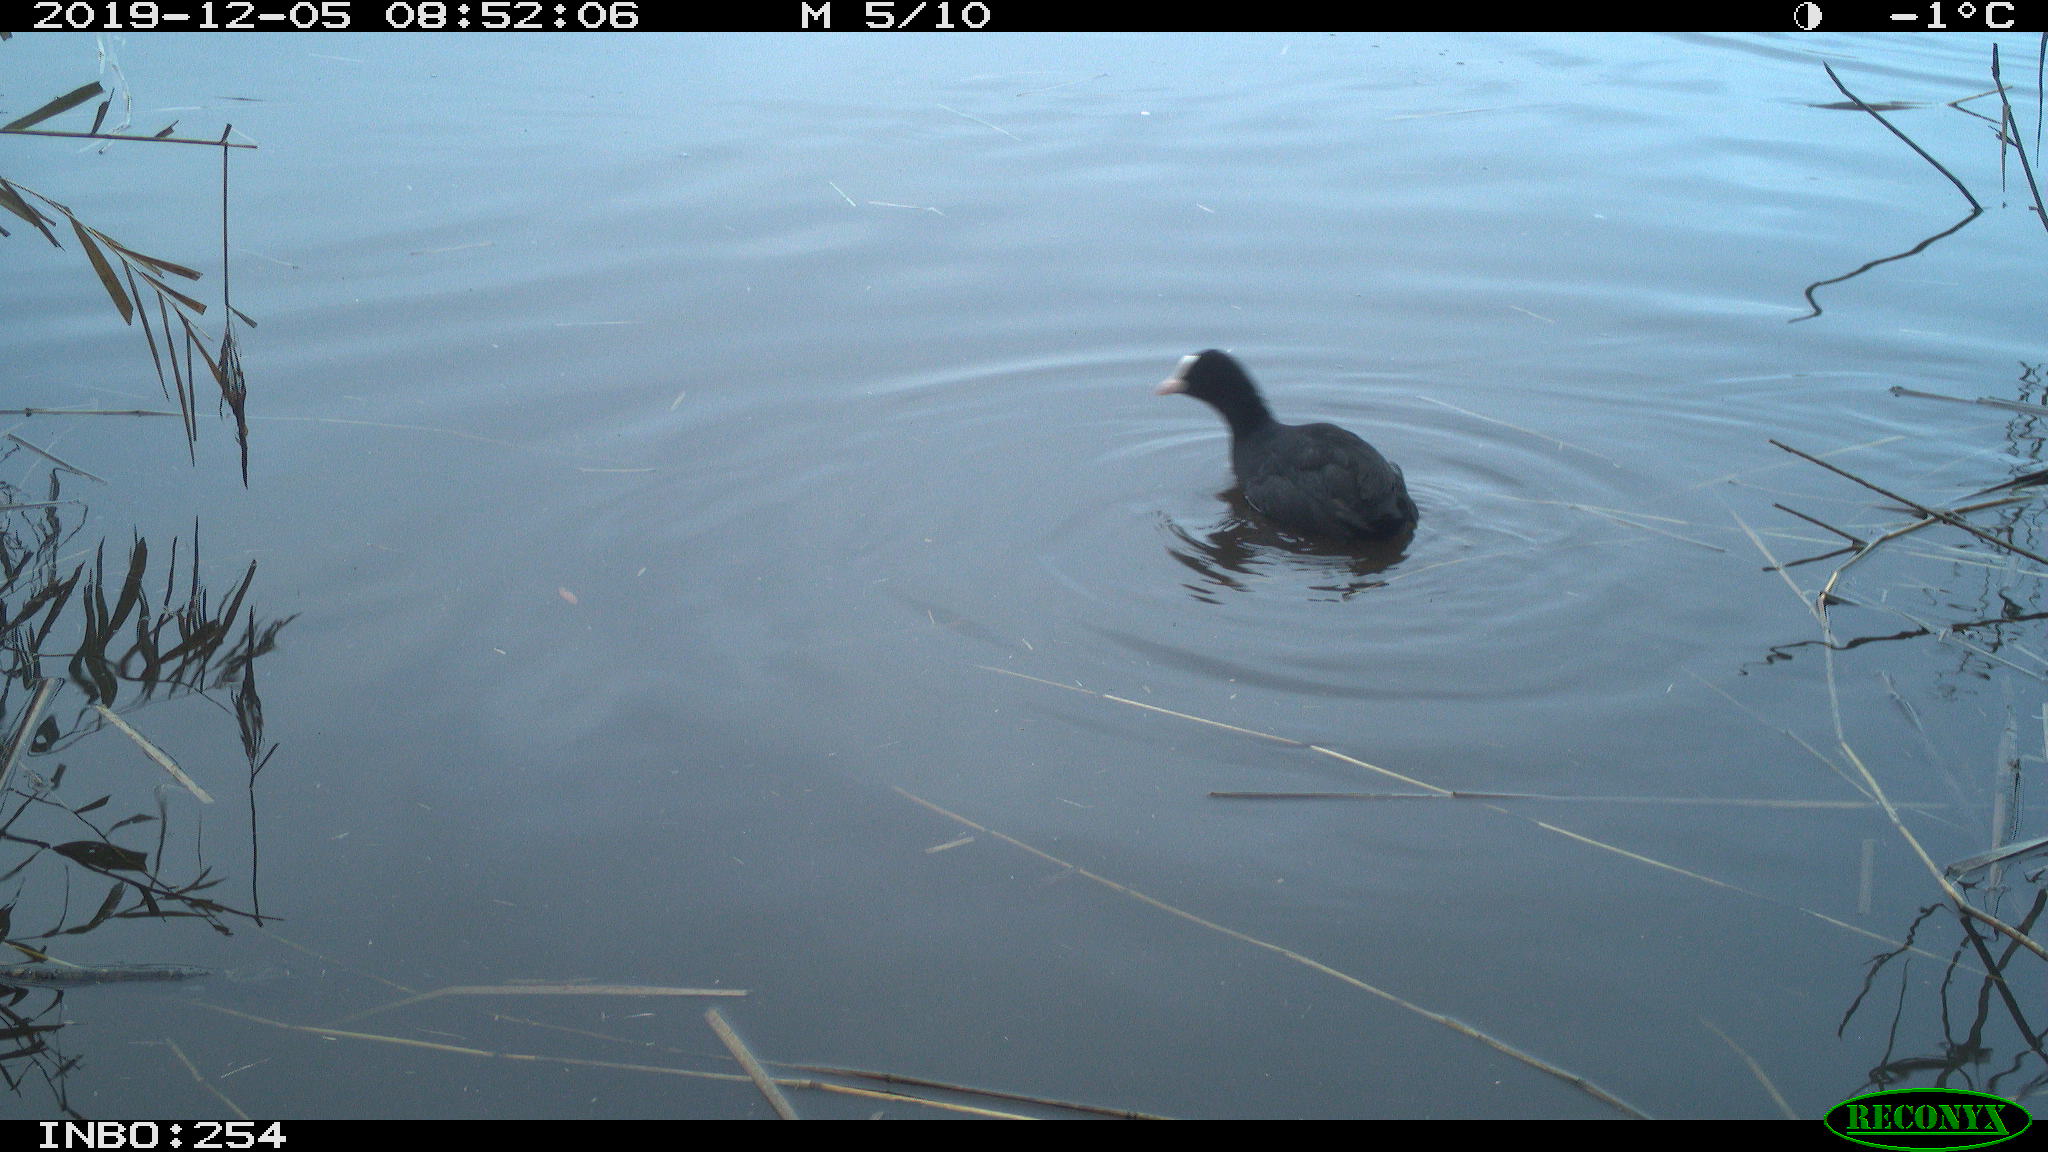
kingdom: Animalia
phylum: Chordata
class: Aves
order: Gruiformes
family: Rallidae
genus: Fulica
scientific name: Fulica atra
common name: Eurasian coot
